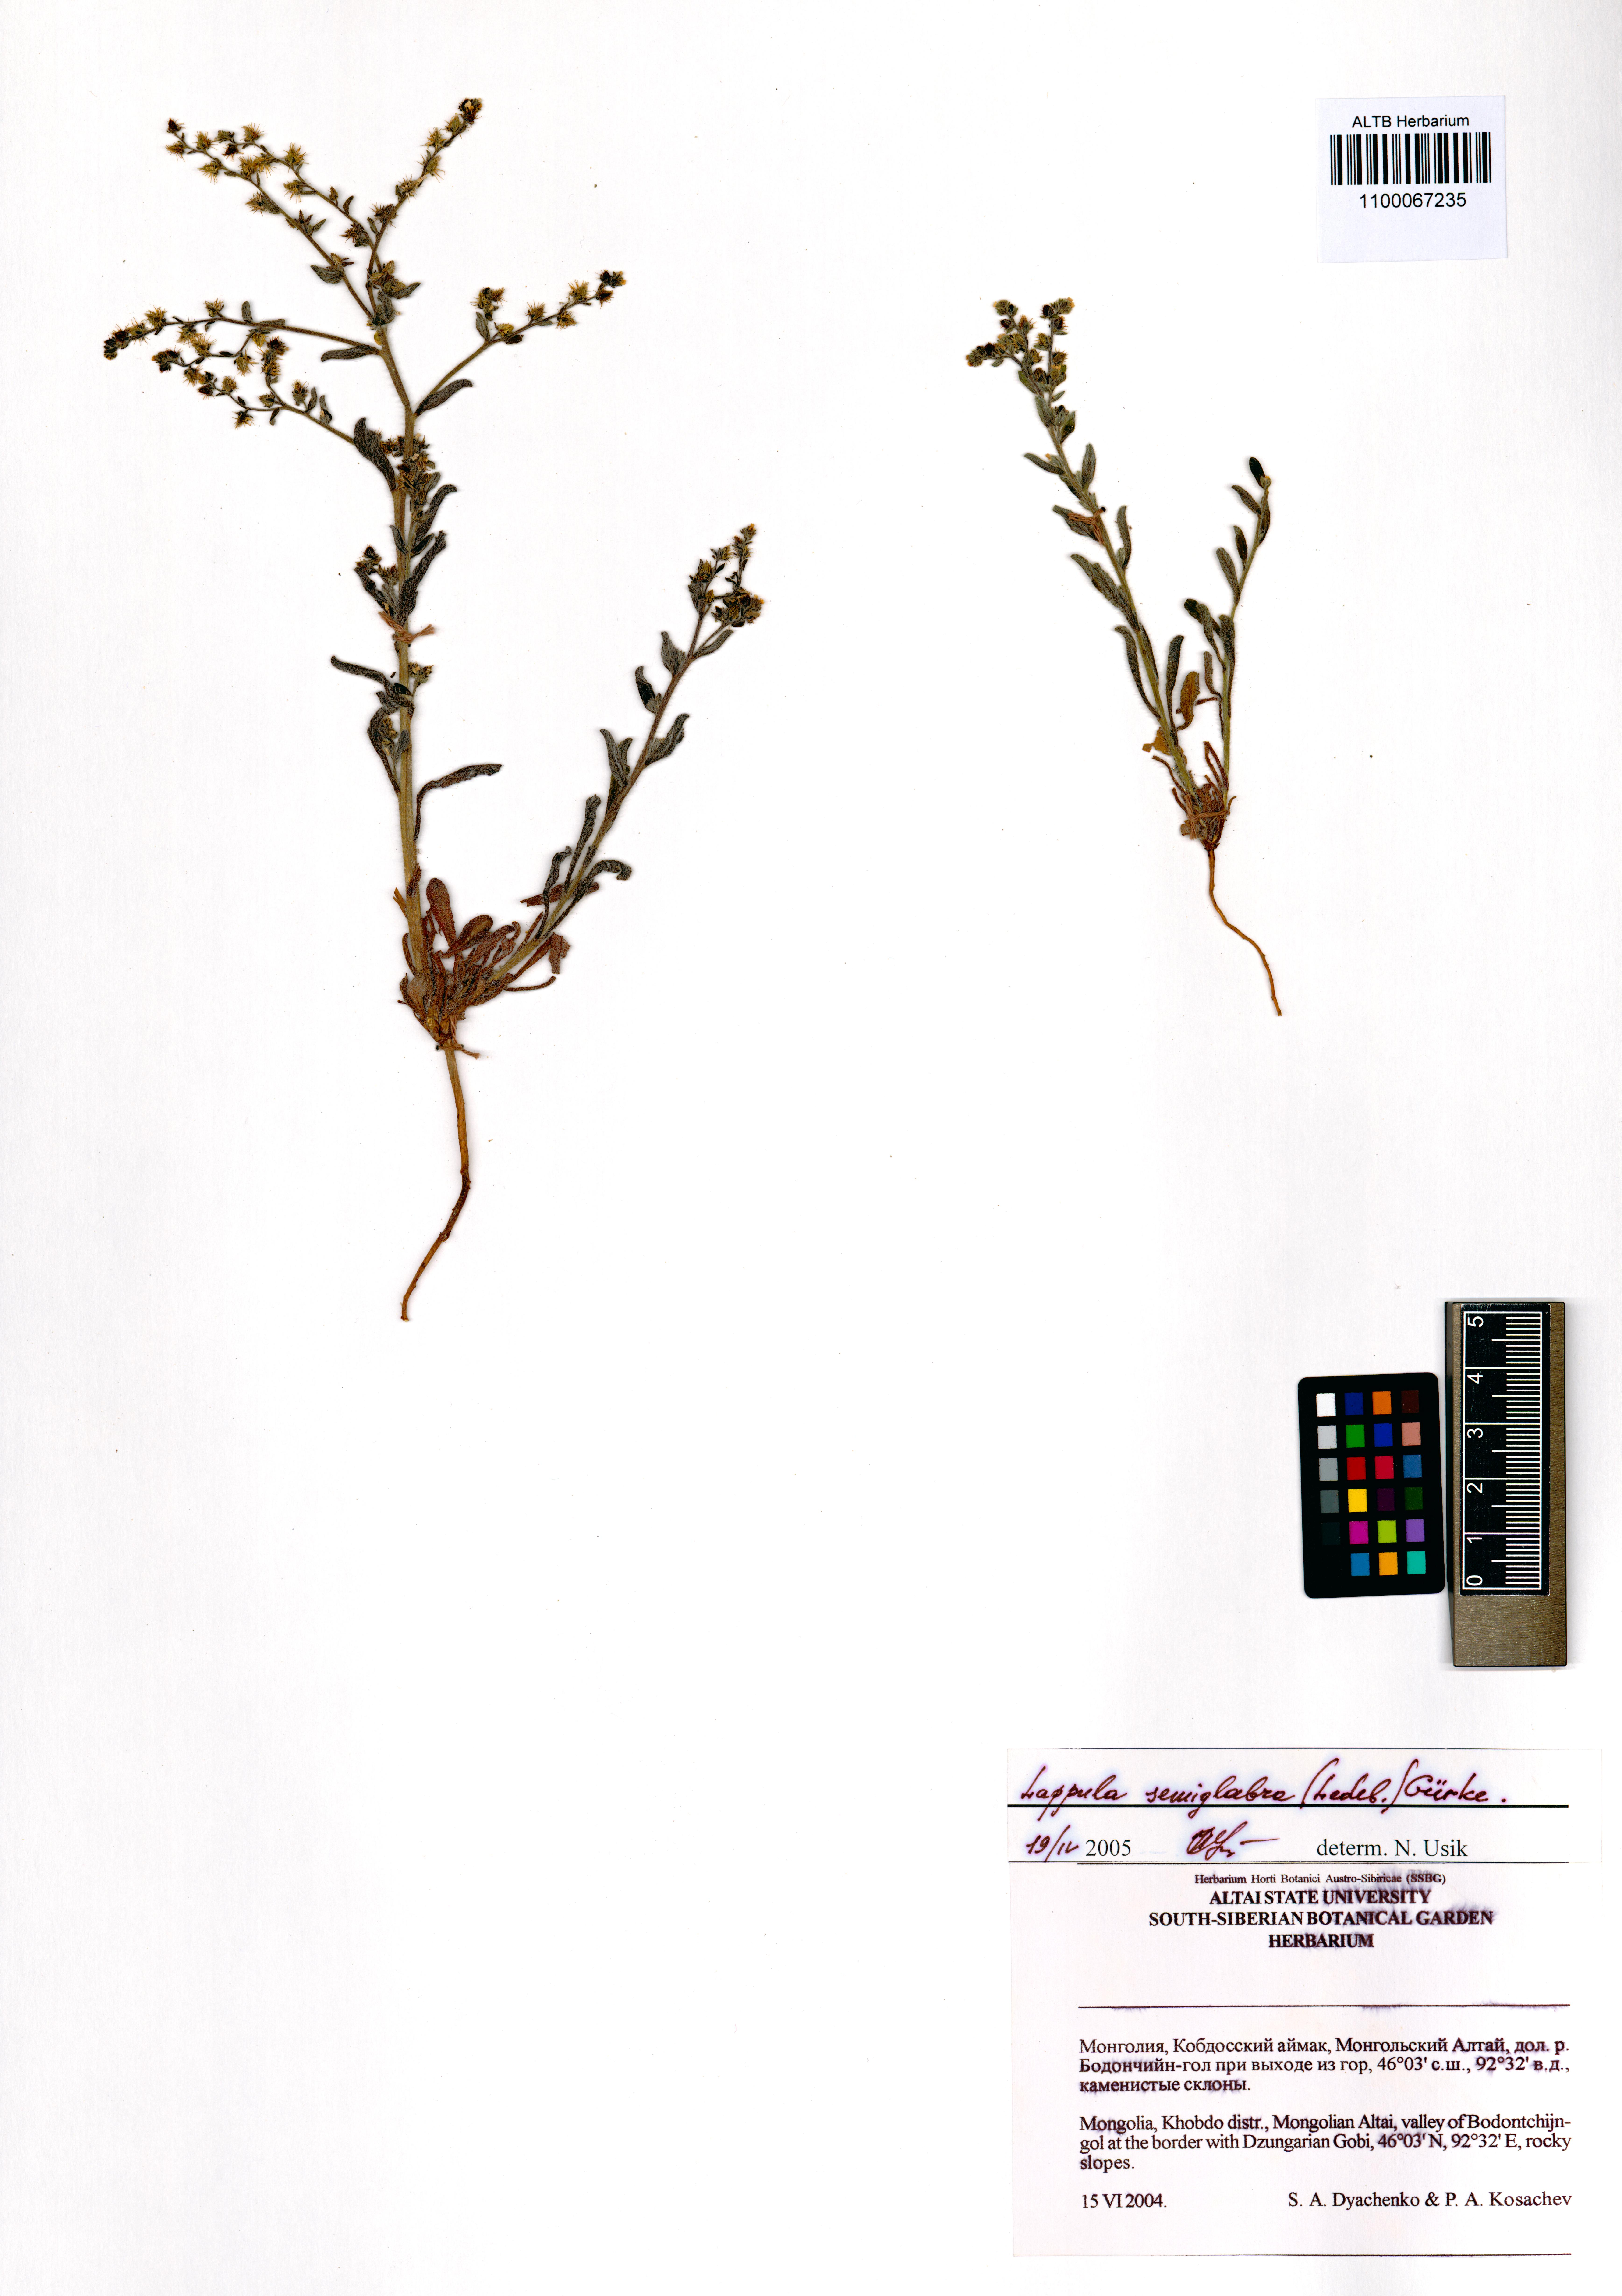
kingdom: Plantae
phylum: Tracheophyta
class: Magnoliopsida
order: Boraginales
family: Boraginaceae
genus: Lappula
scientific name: Lappula patula
